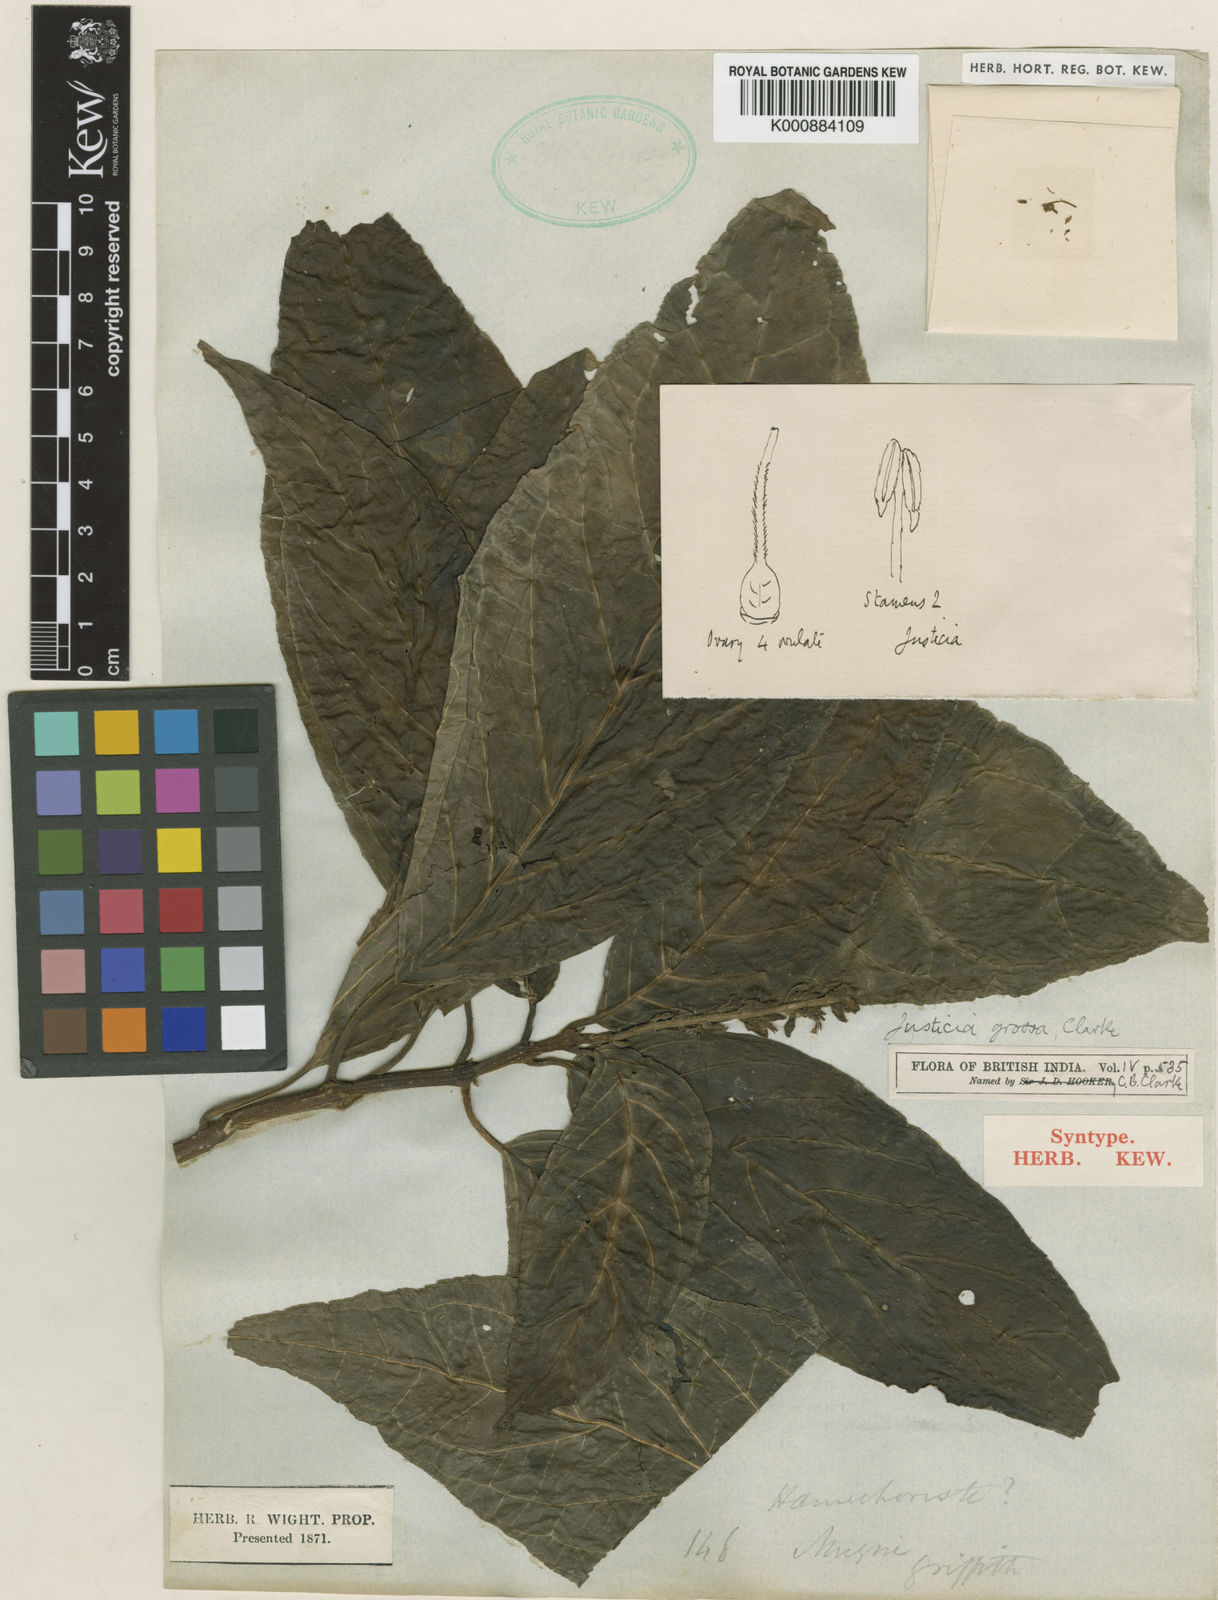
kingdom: Plantae
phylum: Tracheophyta
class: Magnoliopsida
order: Lamiales
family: Acanthaceae
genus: Ecbolium
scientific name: Ecbolium grossum
